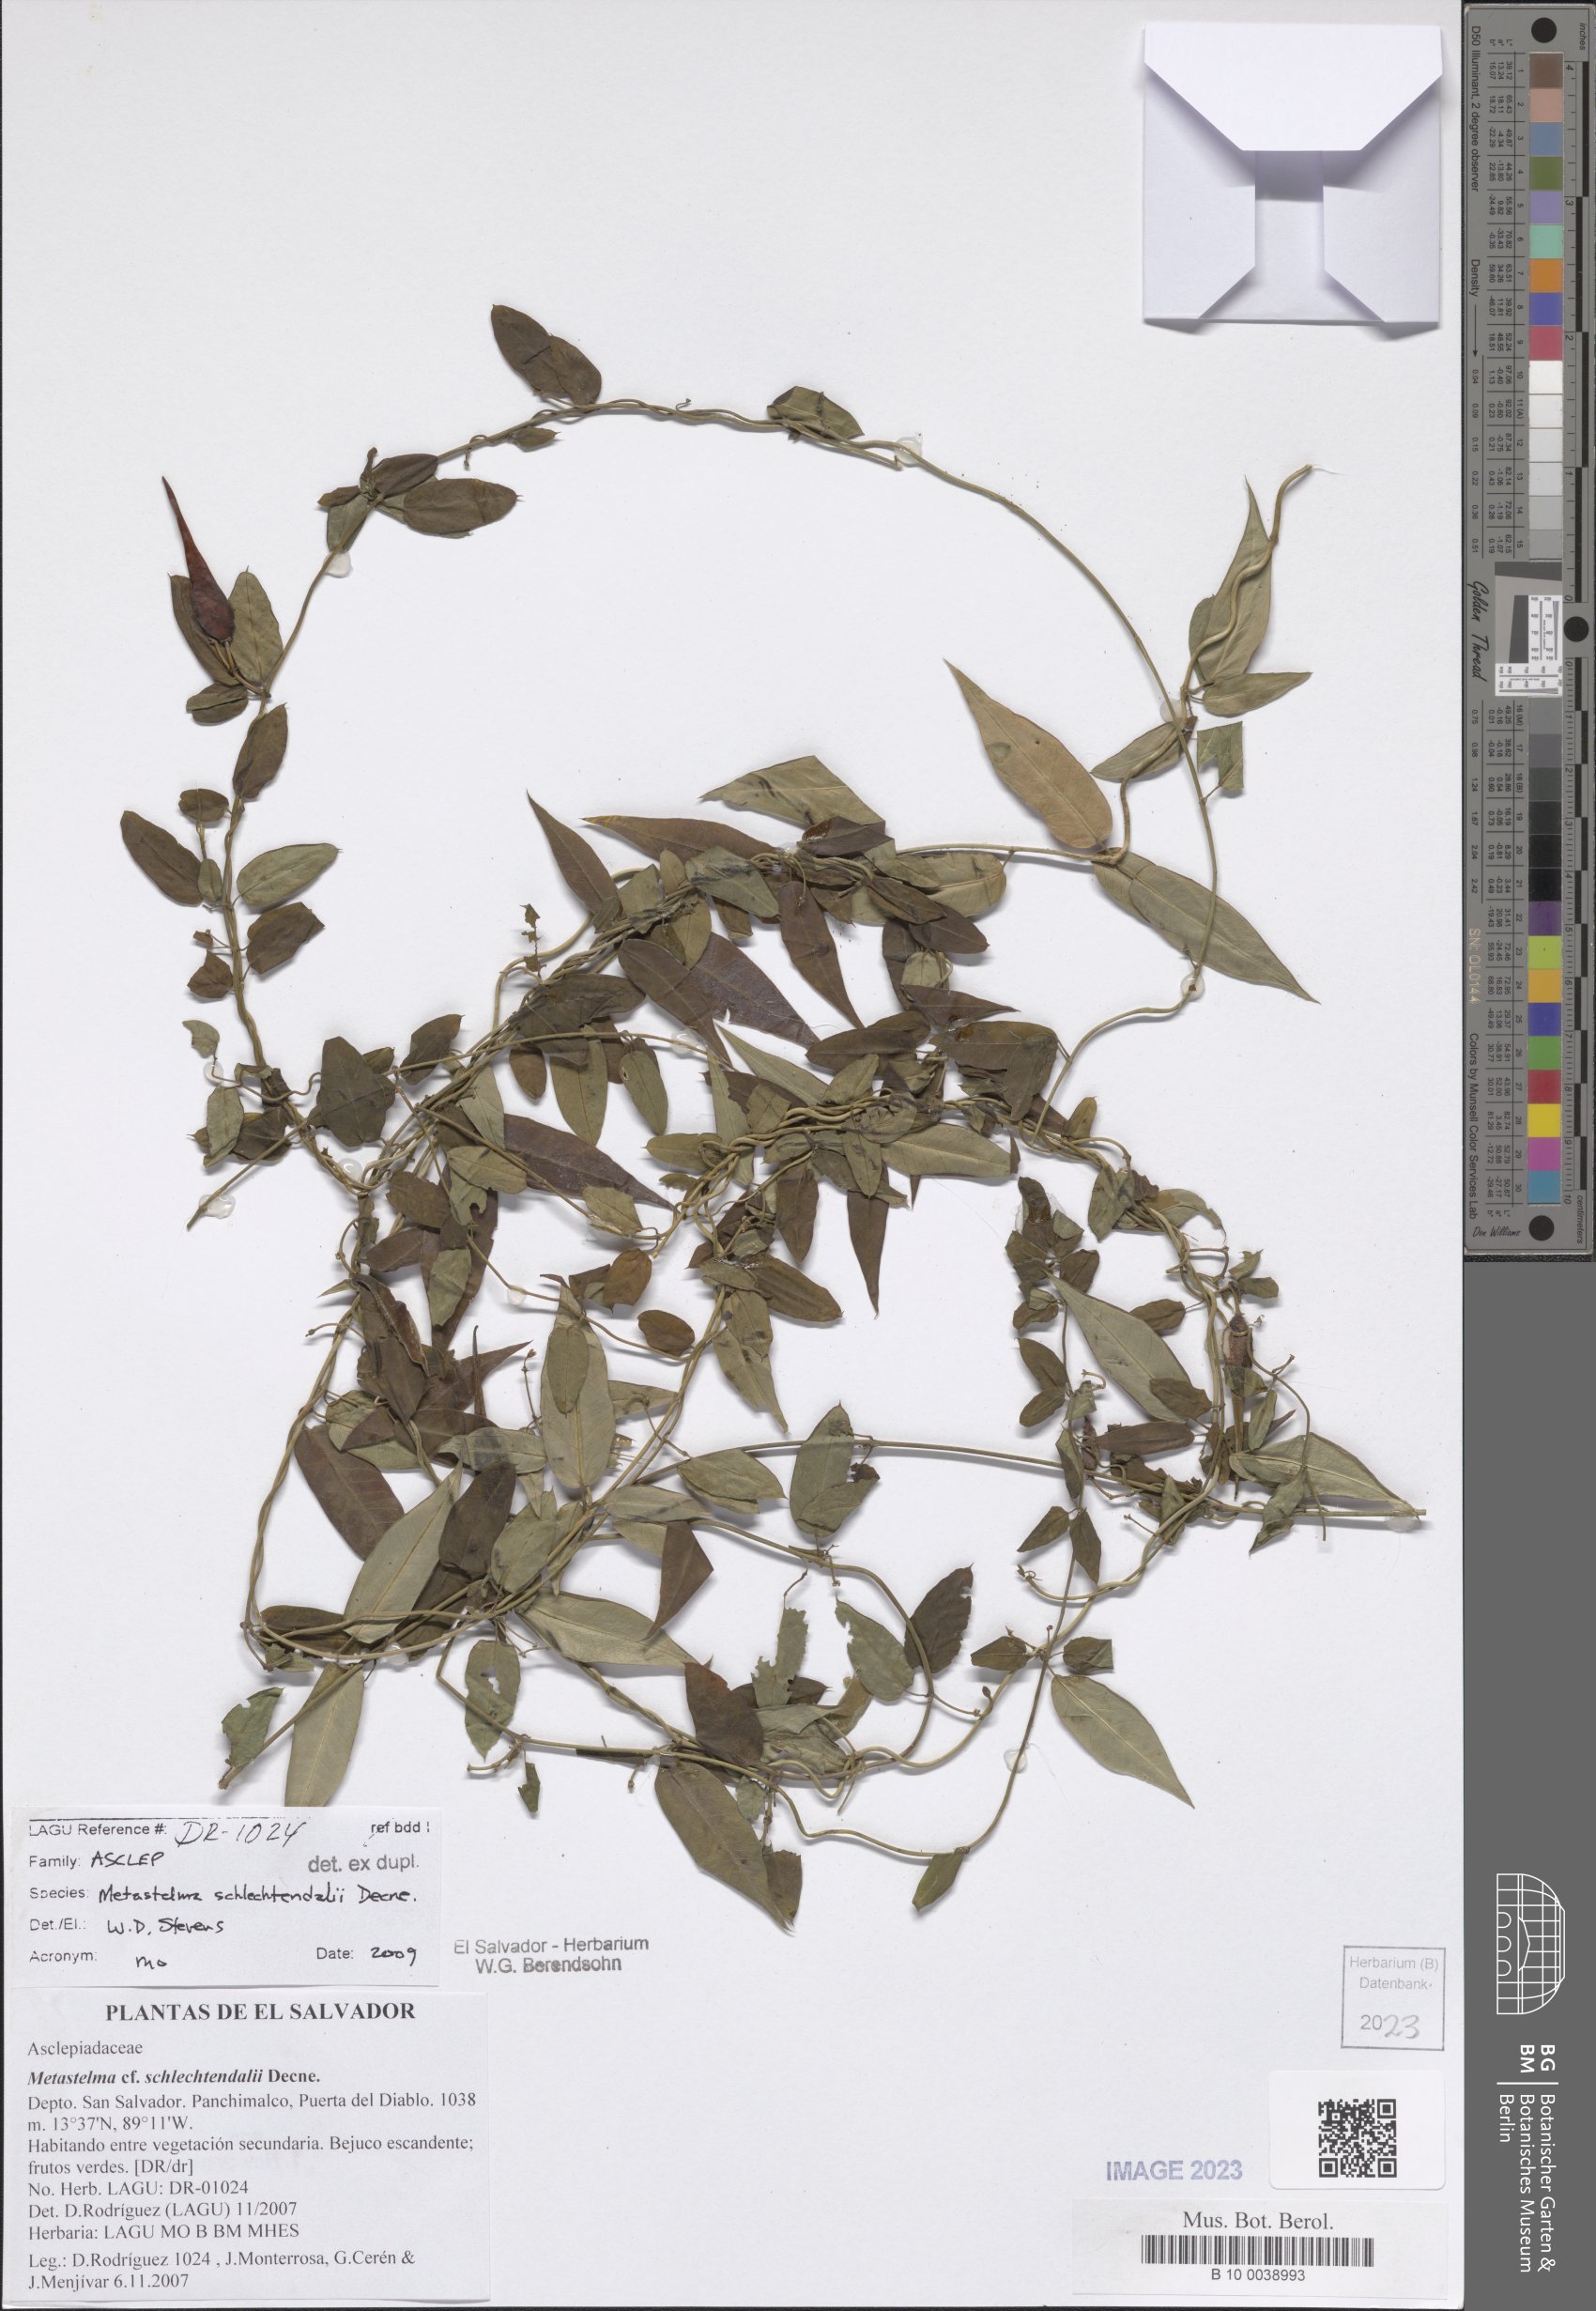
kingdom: Plantae
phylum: Tracheophyta
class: Magnoliopsida
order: Gentianales
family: Apocynaceae
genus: Metastelma
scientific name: Metastelma schlechtendalii
